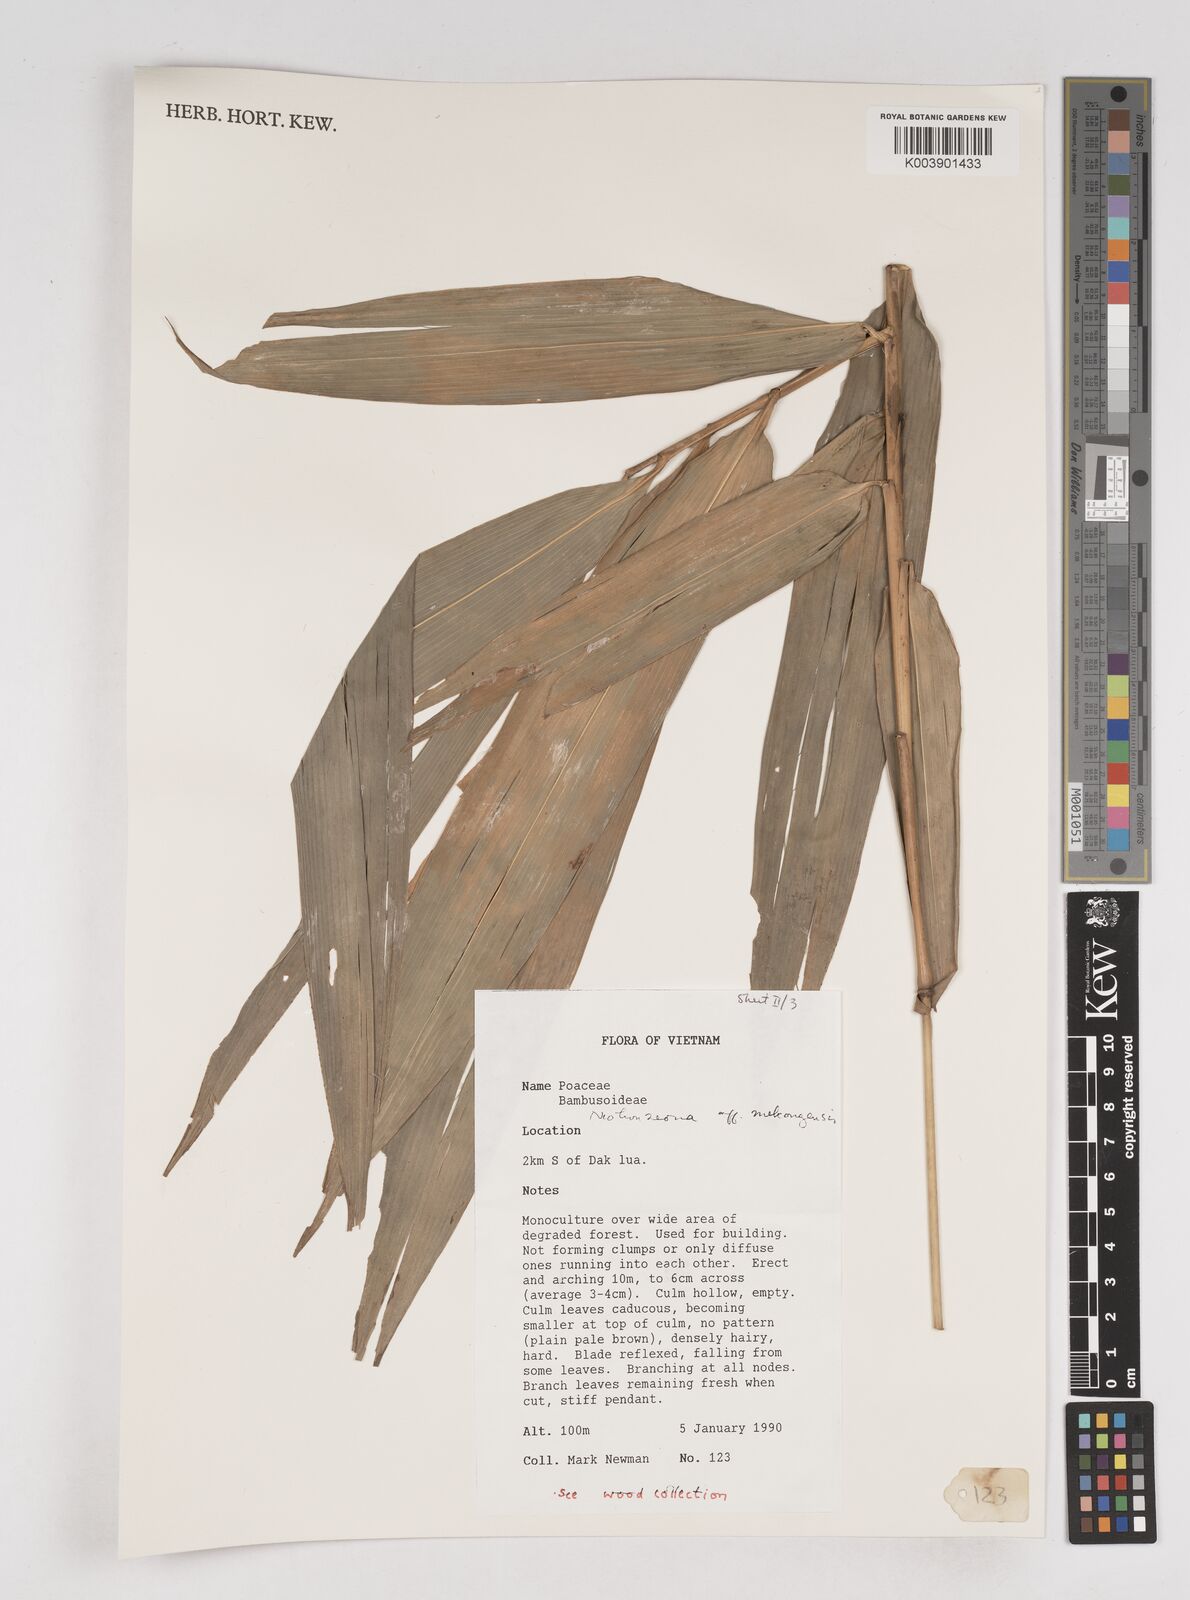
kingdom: Plantae
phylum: Tracheophyta
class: Liliopsida
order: Poales
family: Poaceae
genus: Schizostachyum
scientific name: Schizostachyum
